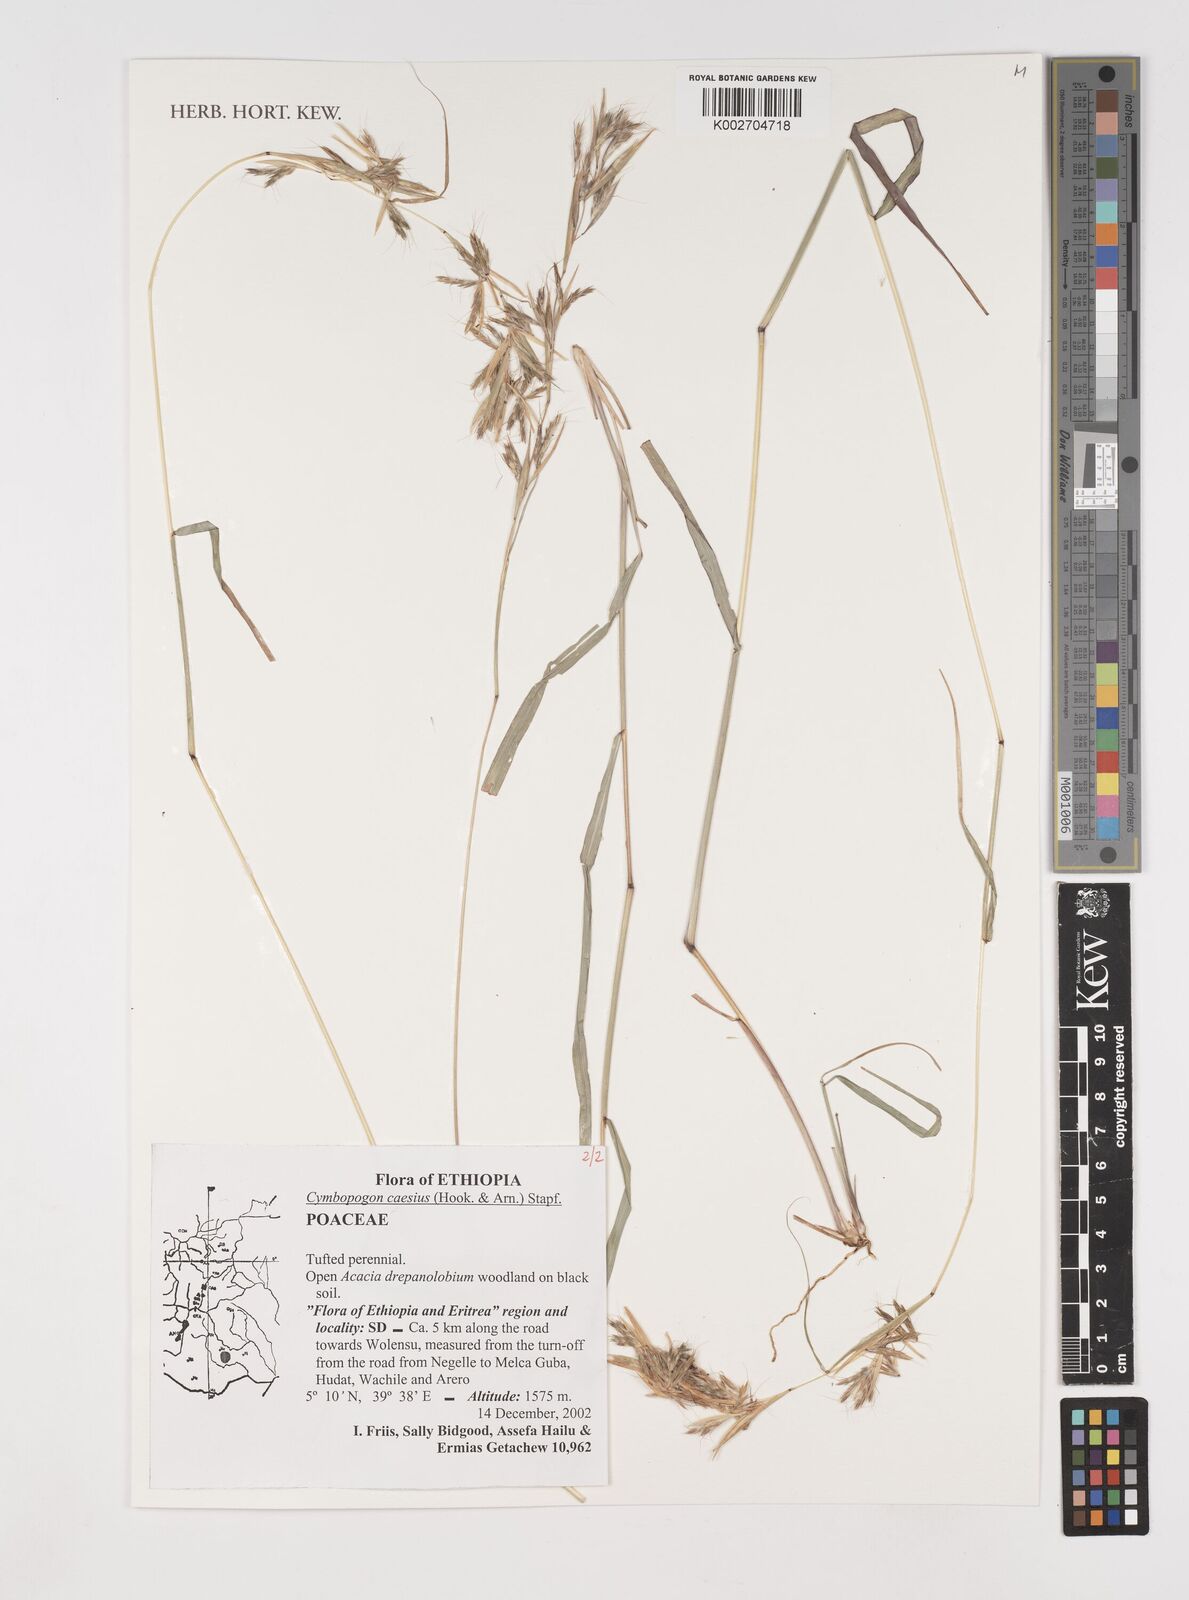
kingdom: Plantae
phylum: Tracheophyta
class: Liliopsida
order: Poales
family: Poaceae
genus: Cymbopogon
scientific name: Cymbopogon caesius
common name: Kachi grass
